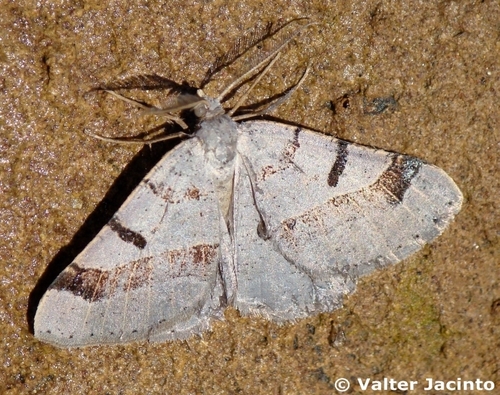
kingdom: Animalia
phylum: Arthropoda
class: Insecta
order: Lepidoptera
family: Geometridae
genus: Itame
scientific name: Itame vincularia
